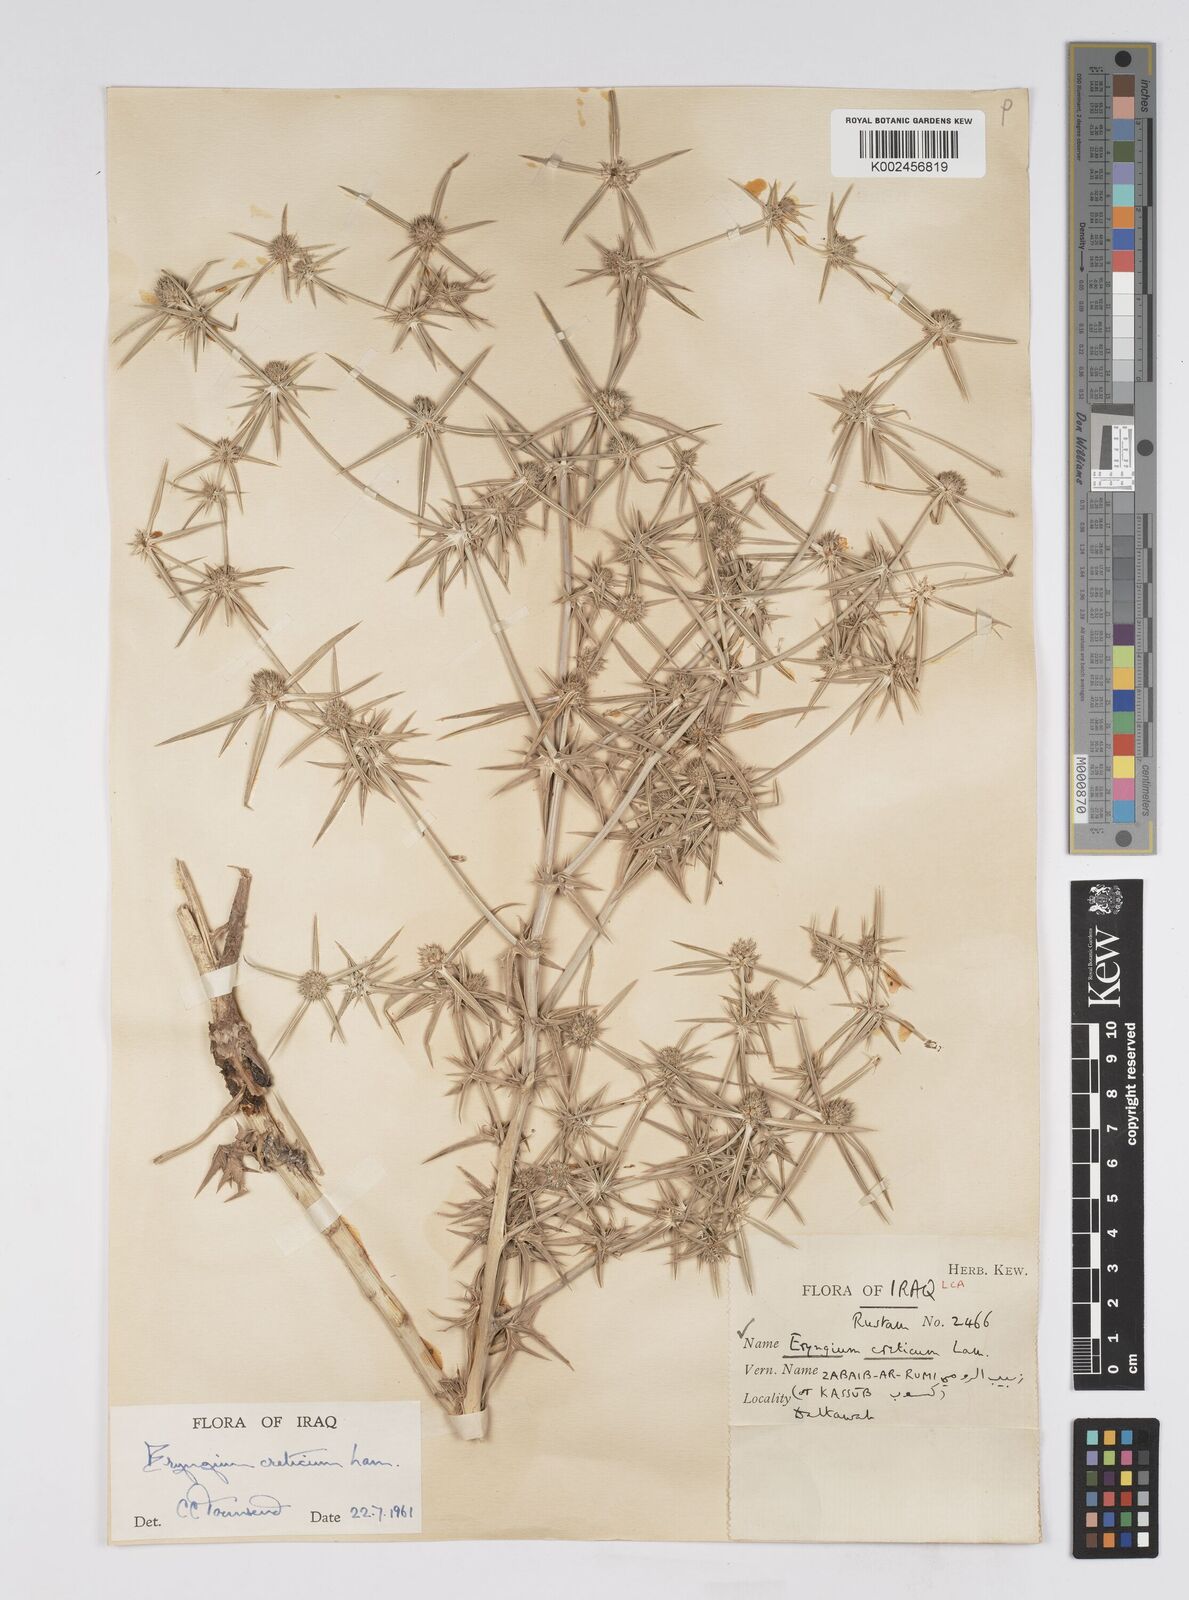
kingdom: Plantae
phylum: Tracheophyta
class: Magnoliopsida
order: Apiales
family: Apiaceae
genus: Eryngium
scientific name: Eryngium creticum
